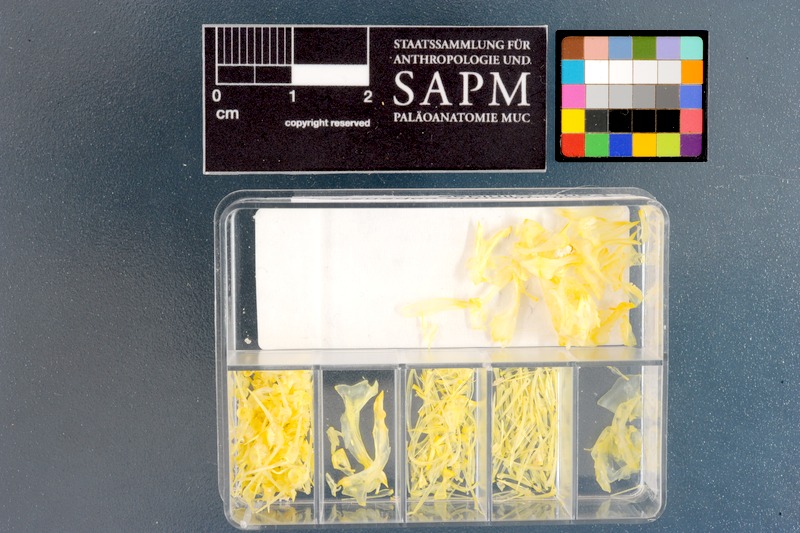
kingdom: Animalia
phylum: Chordata
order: Perciformes
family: Clinidae
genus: Cirrhibarbis
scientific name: Cirrhibarbis capensis
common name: Barbelled klipfish
